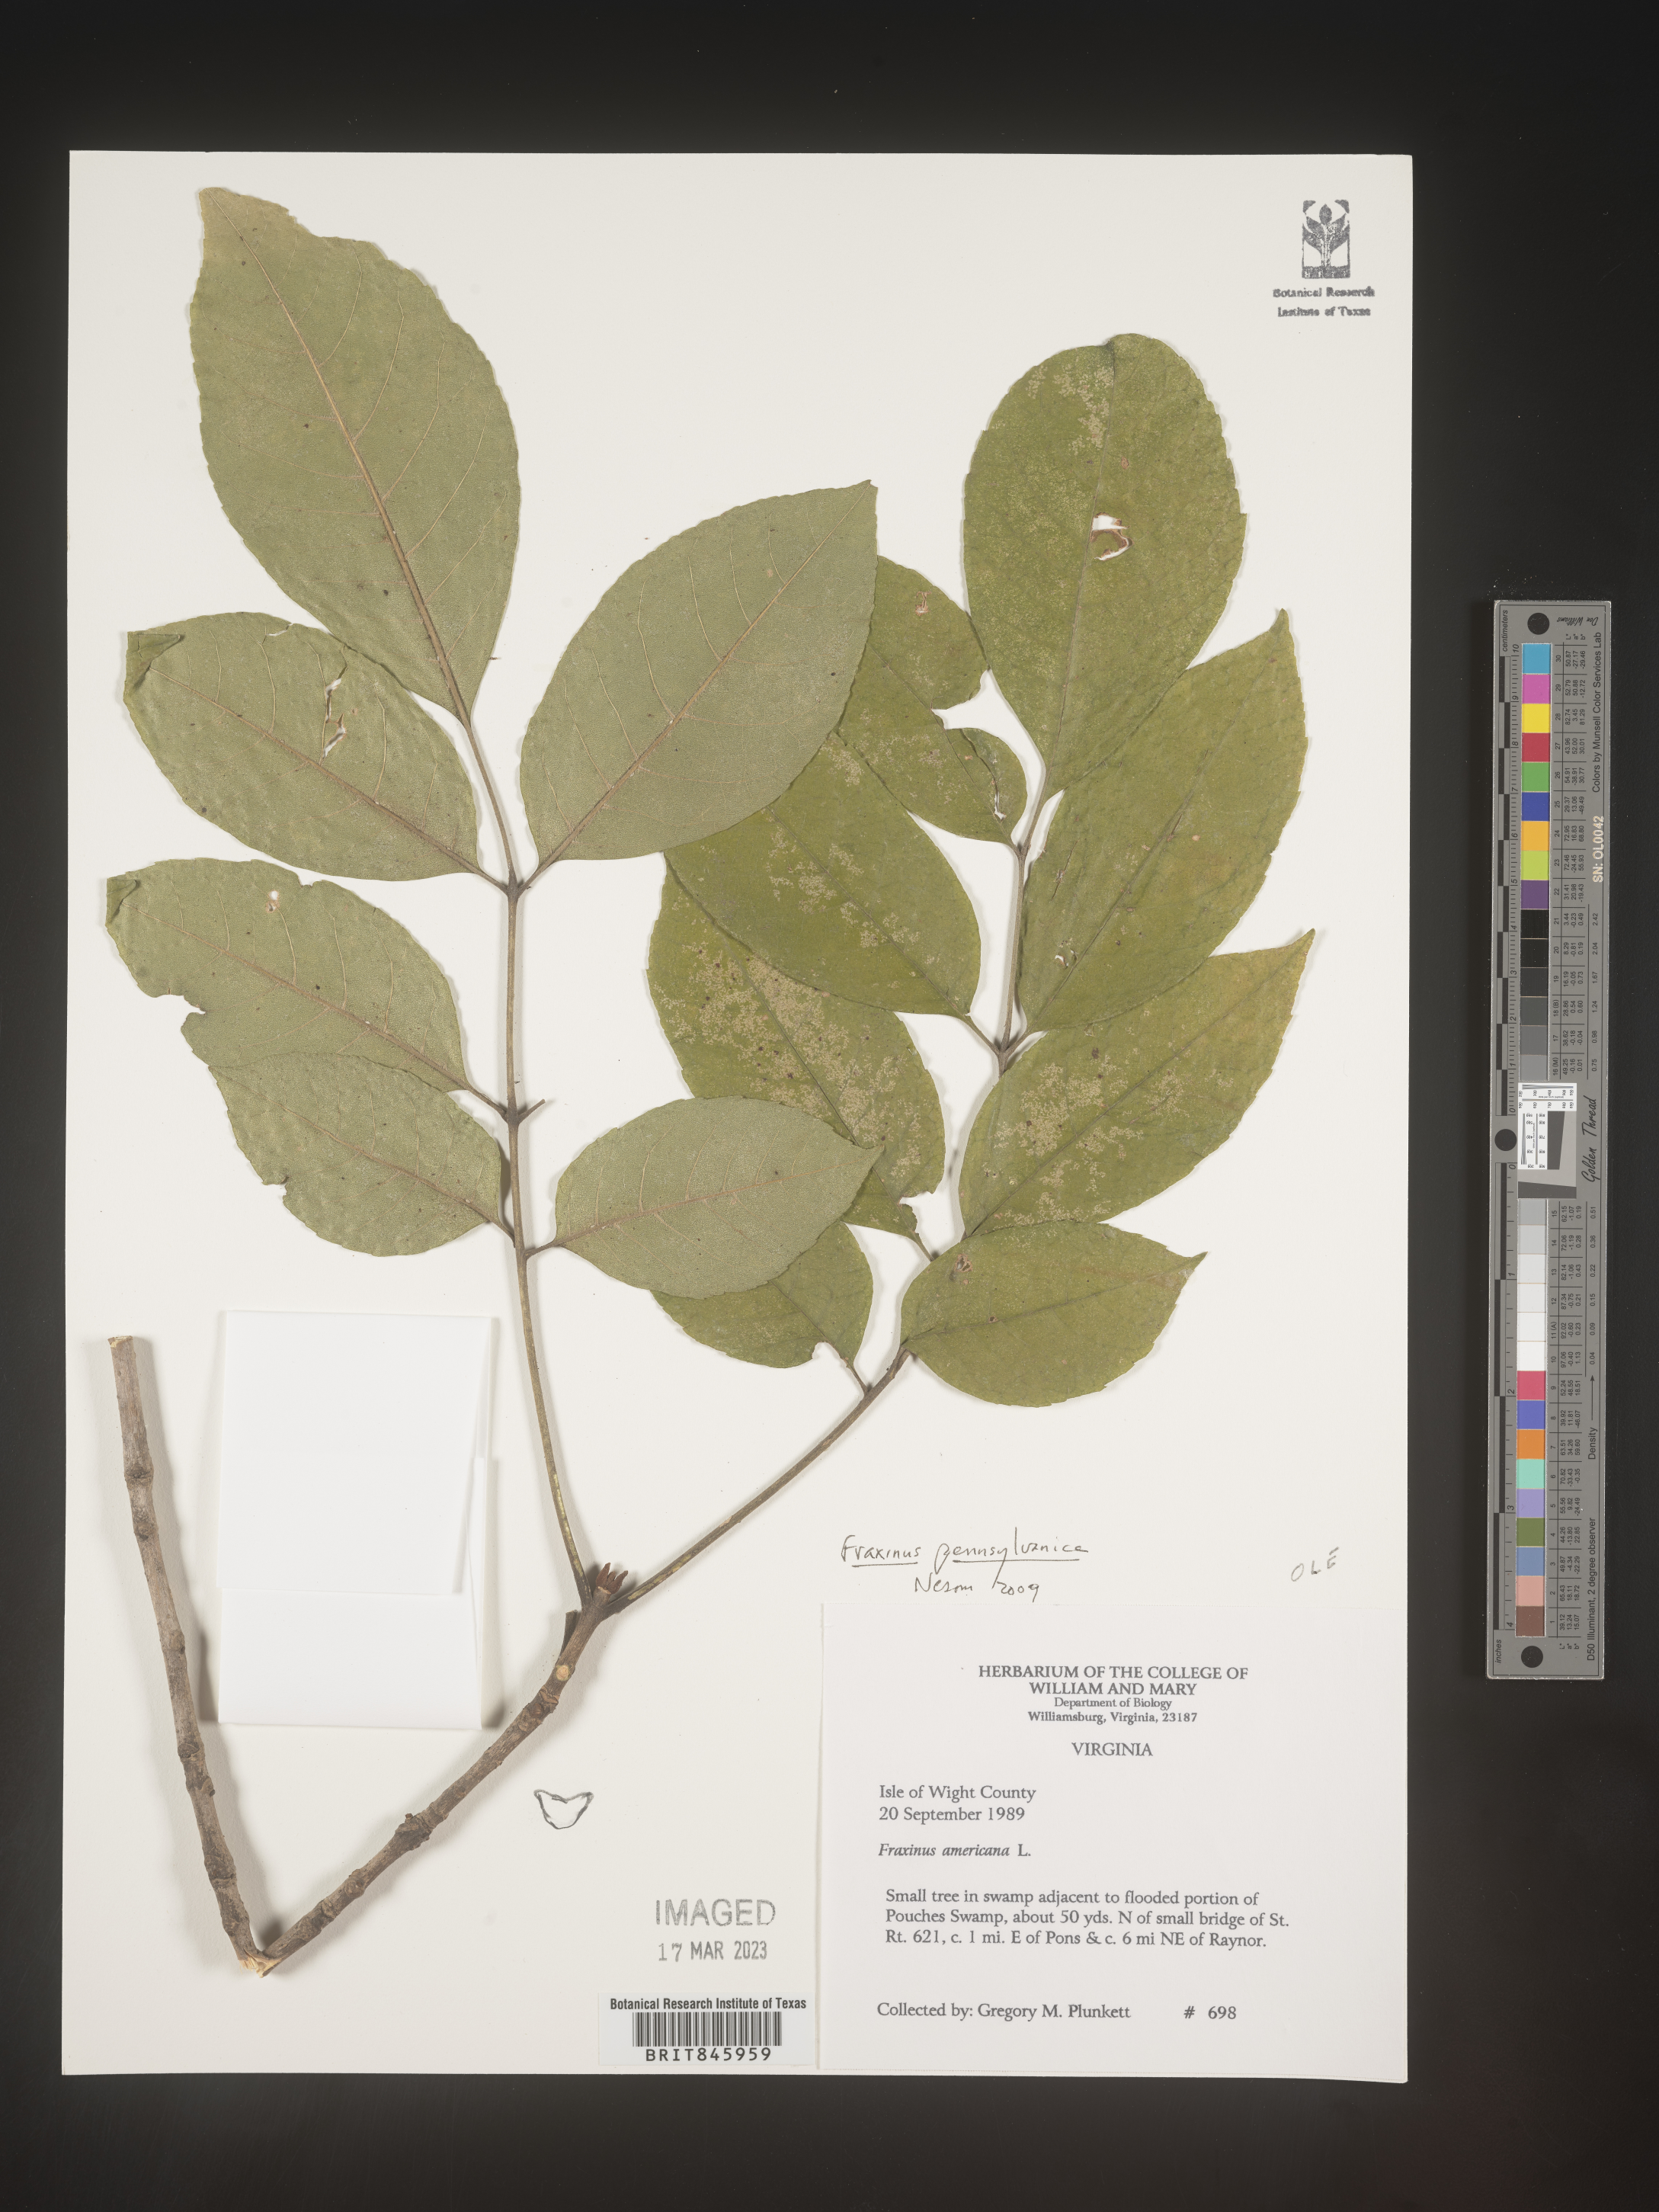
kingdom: Plantae
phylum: Tracheophyta
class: Magnoliopsida
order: Lamiales
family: Oleaceae
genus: Fraxinus
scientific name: Fraxinus
